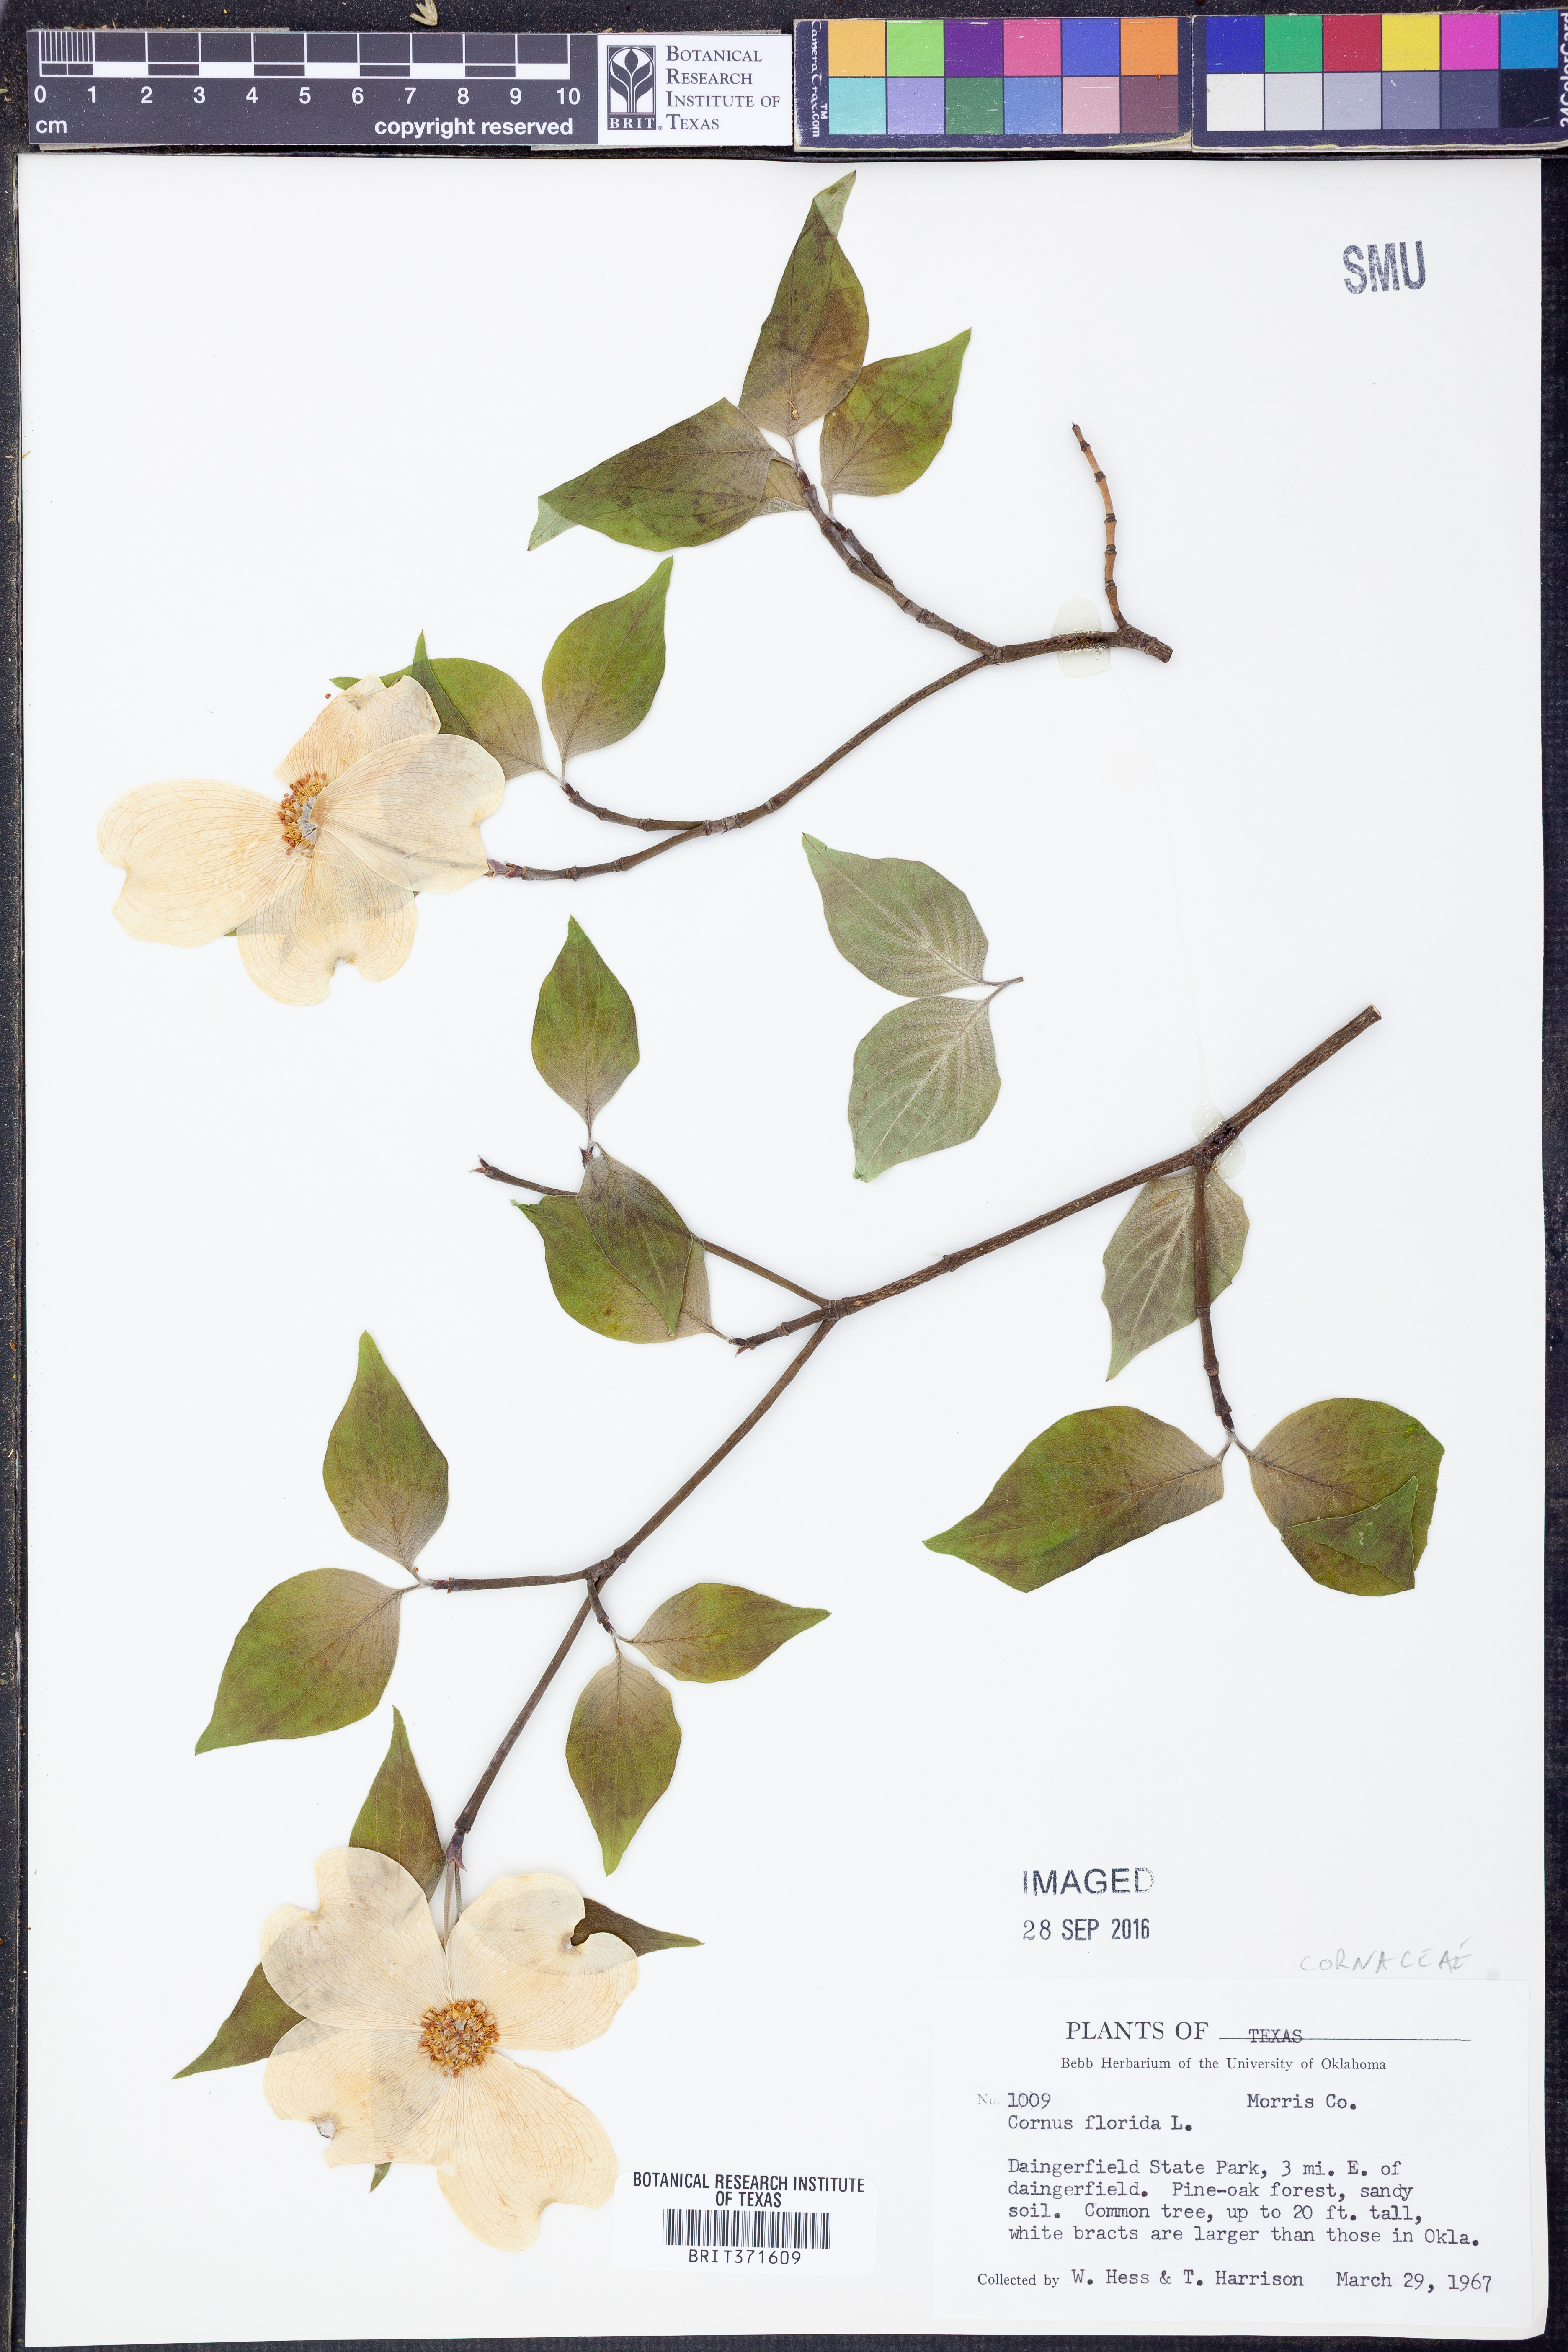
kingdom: Plantae
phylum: Tracheophyta
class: Magnoliopsida
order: Cornales
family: Cornaceae
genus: Cornus
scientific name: Cornus florida
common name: Flowering dogwood
